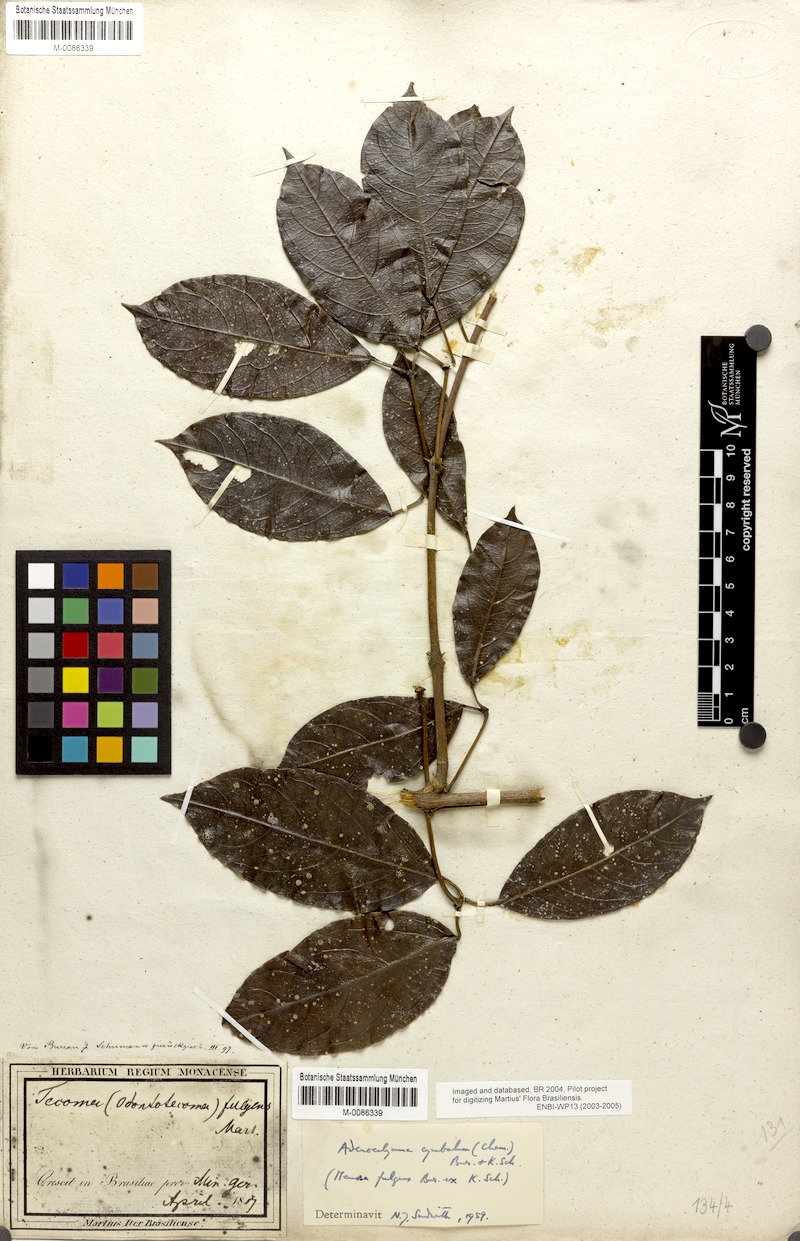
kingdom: Plantae
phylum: Tracheophyta
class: Magnoliopsida
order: Lamiales
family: Bignoniaceae
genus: Adenocalymma
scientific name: Adenocalymma cymbalum
